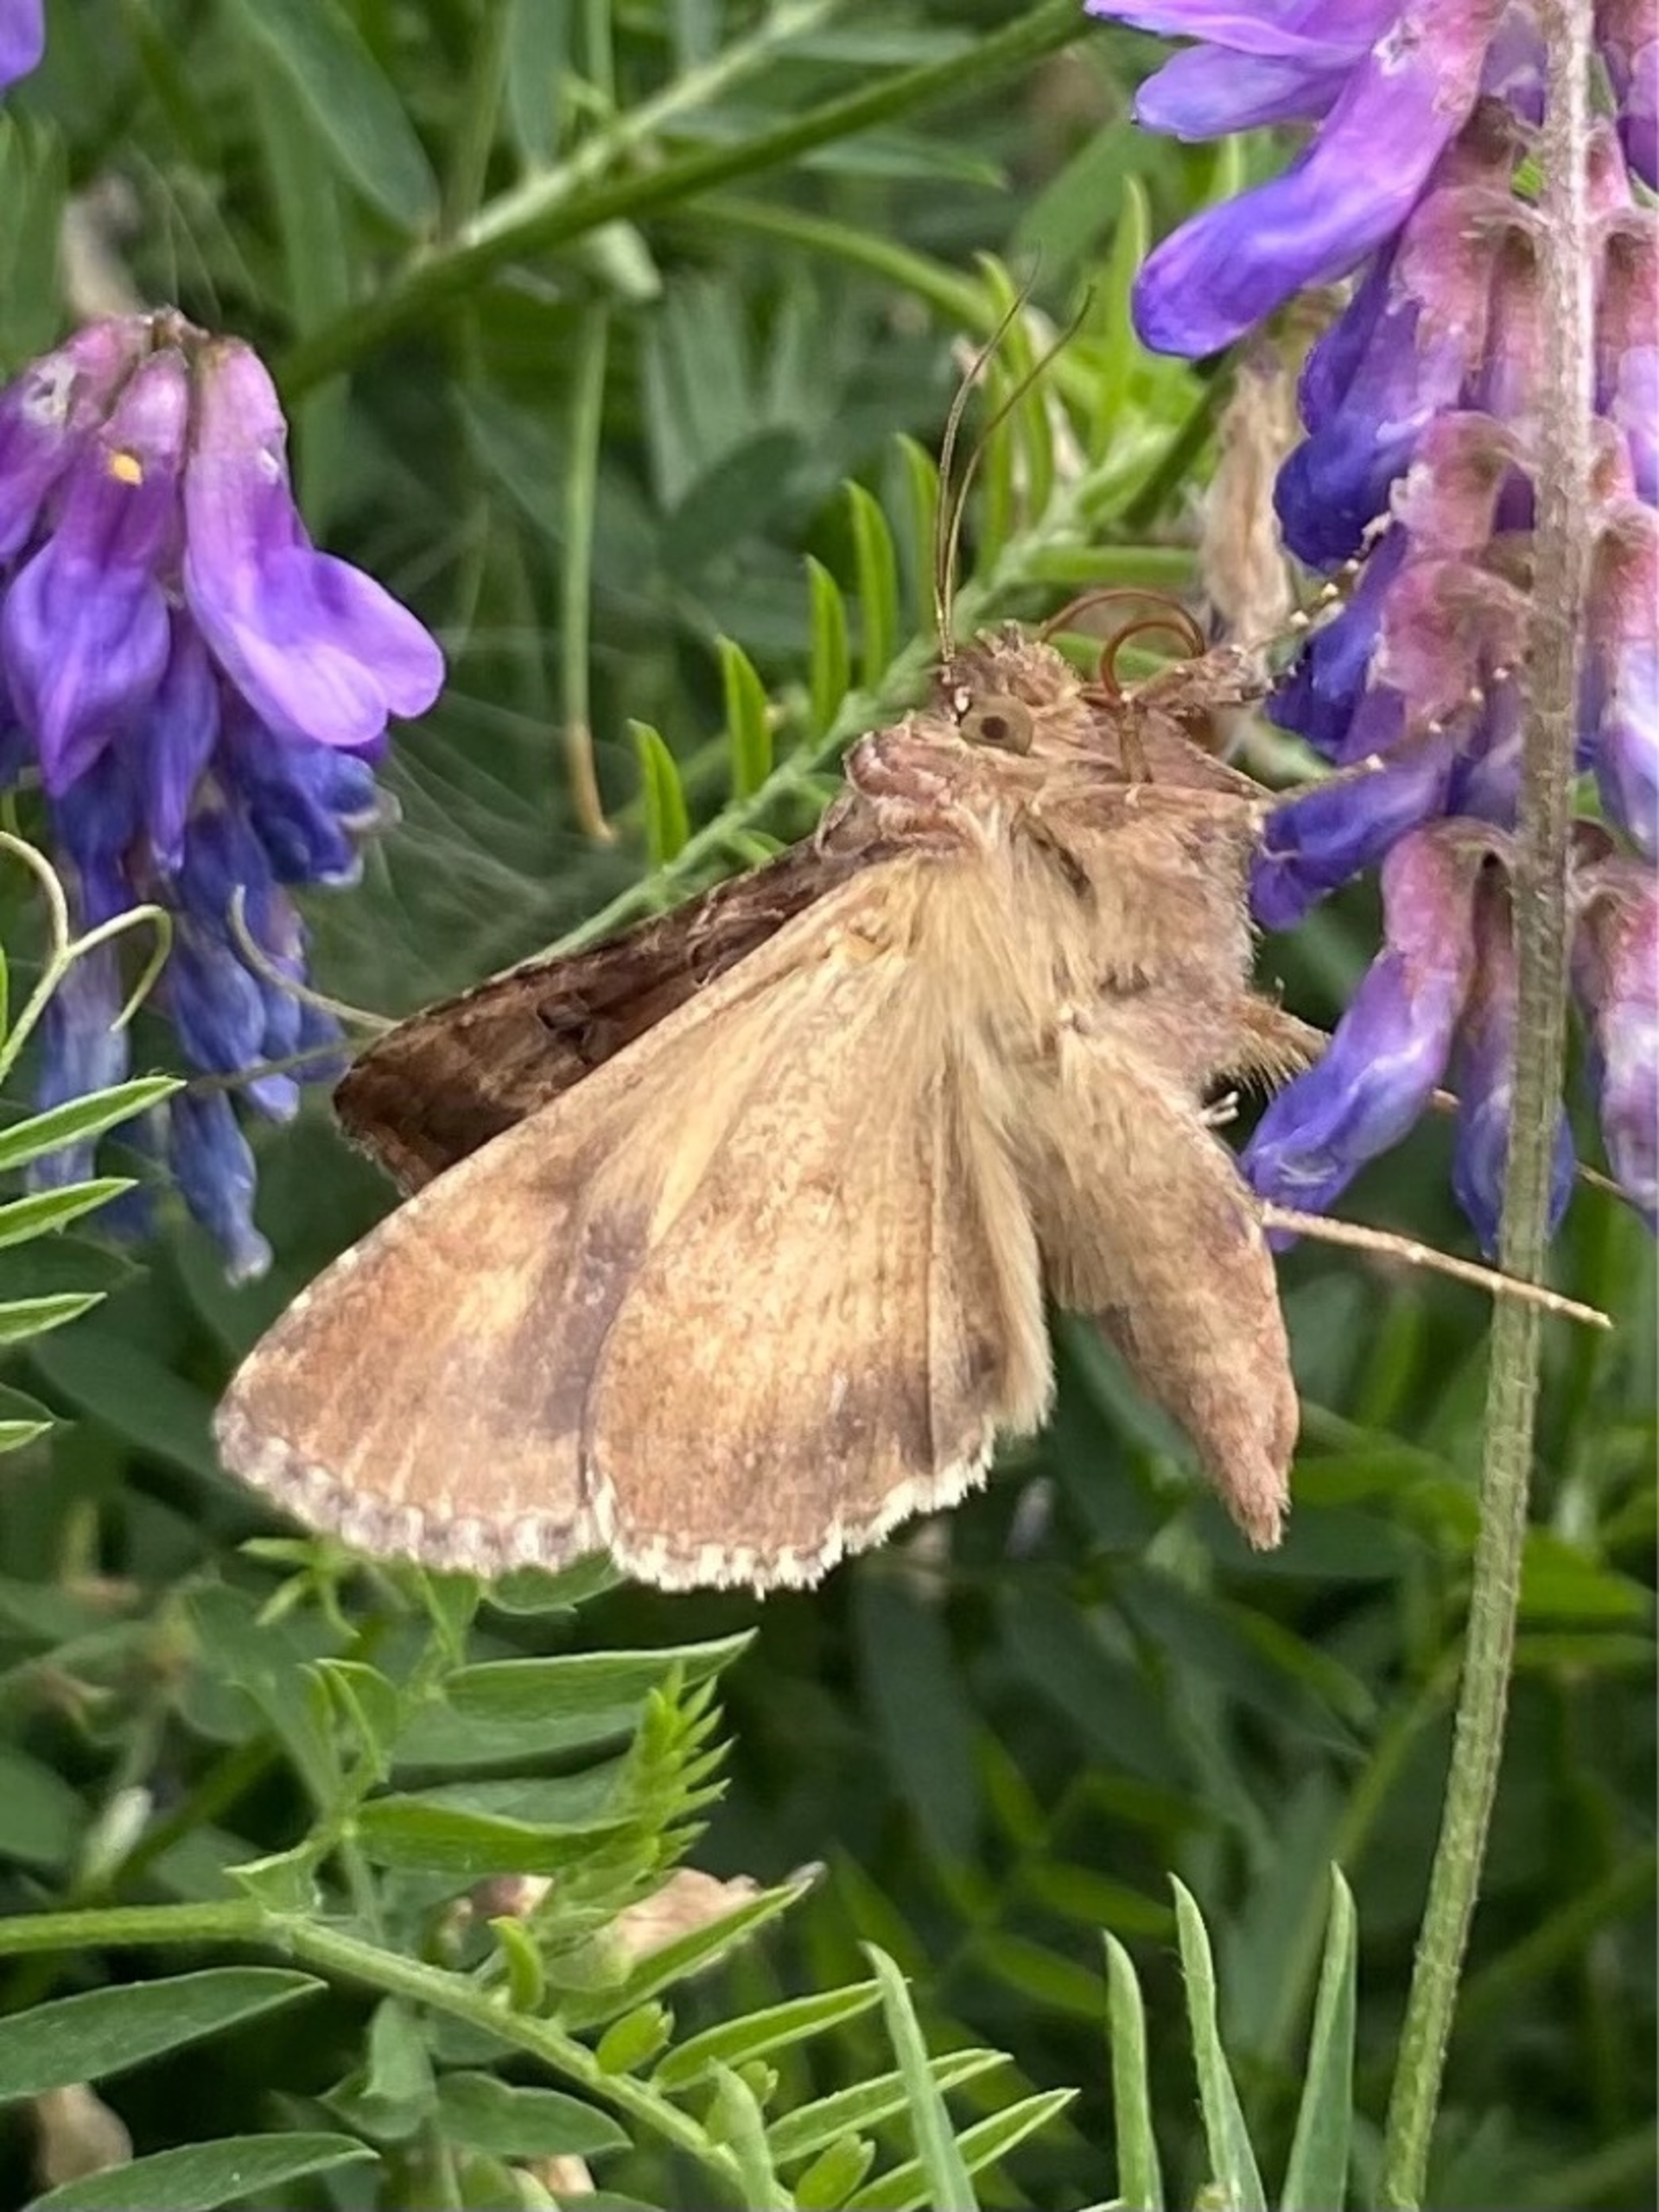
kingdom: Animalia
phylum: Arthropoda
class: Insecta
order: Lepidoptera
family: Noctuidae
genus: Autographa
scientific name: Autographa gamma
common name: Gammaugle
